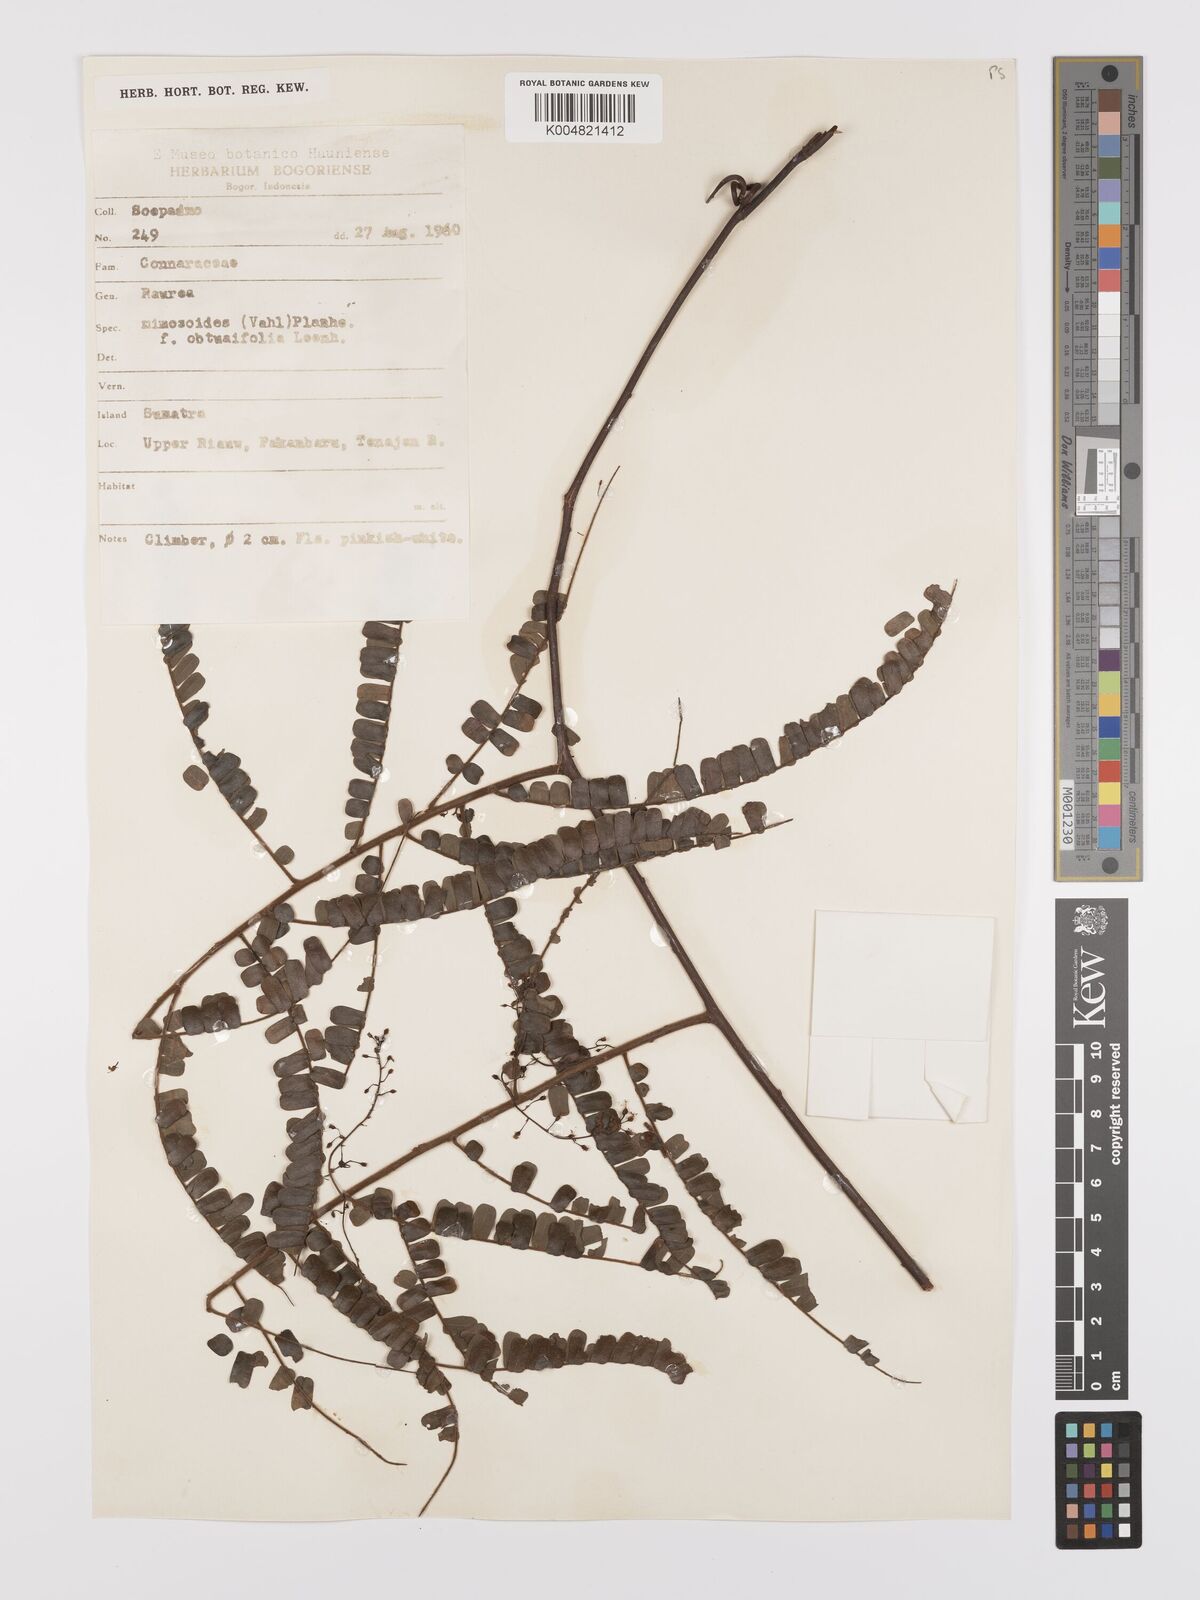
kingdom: Plantae
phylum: Tracheophyta
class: Magnoliopsida
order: Oxalidales
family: Connaraceae
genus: Rourea
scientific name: Rourea mimosoides
